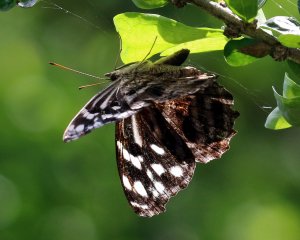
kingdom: Animalia
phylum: Arthropoda
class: Insecta
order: Lepidoptera
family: Nymphalidae
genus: Myscelia
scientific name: Myscelia ethusa
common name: Mexican Bluewing
